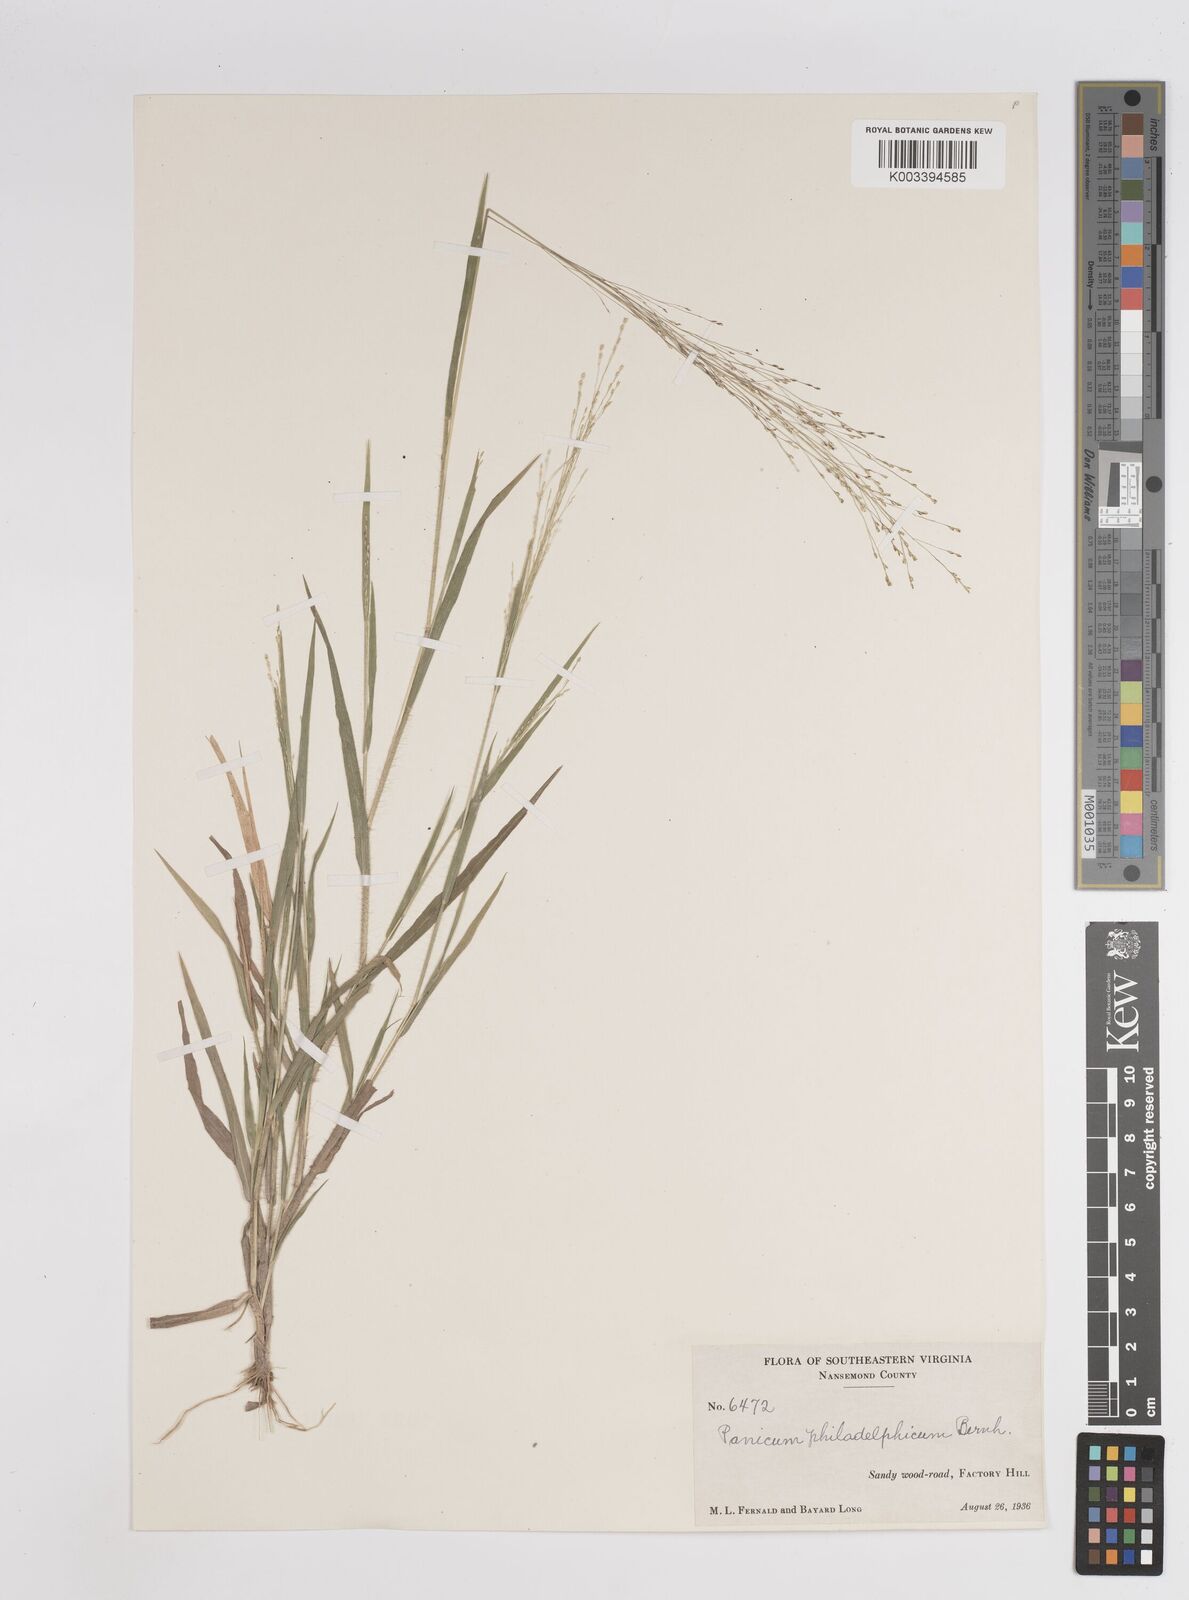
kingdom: Plantae
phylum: Tracheophyta
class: Liliopsida
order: Poales
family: Poaceae
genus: Panicum
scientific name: Panicum philadelphicum
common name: Philadelphia witchgrass
